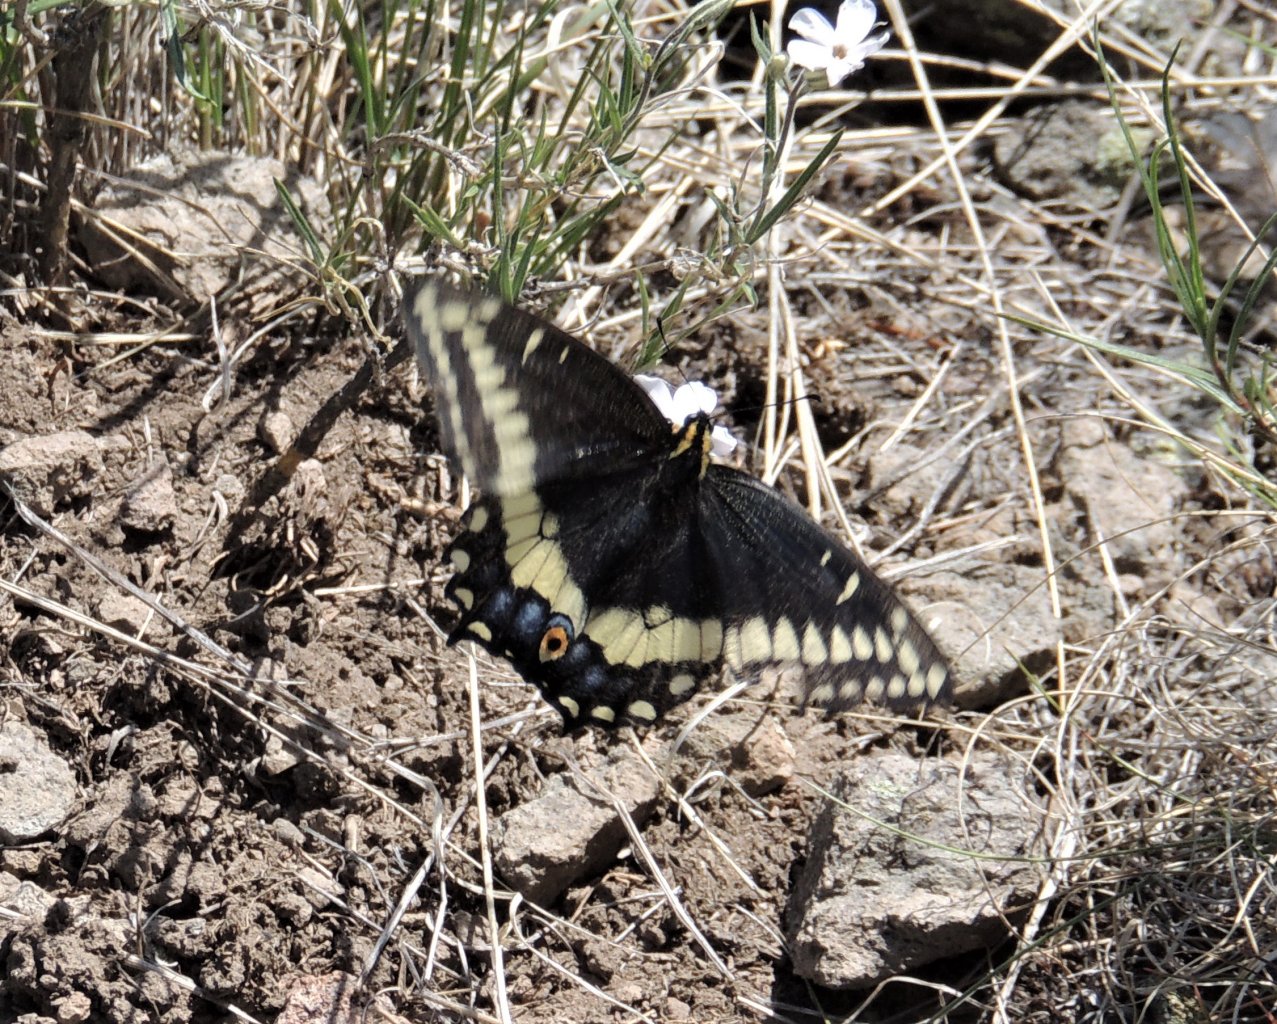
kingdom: Animalia
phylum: Arthropoda
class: Insecta
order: Lepidoptera
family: Papilionidae
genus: Papilio
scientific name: Papilio indra
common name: Indra Swallowtail
